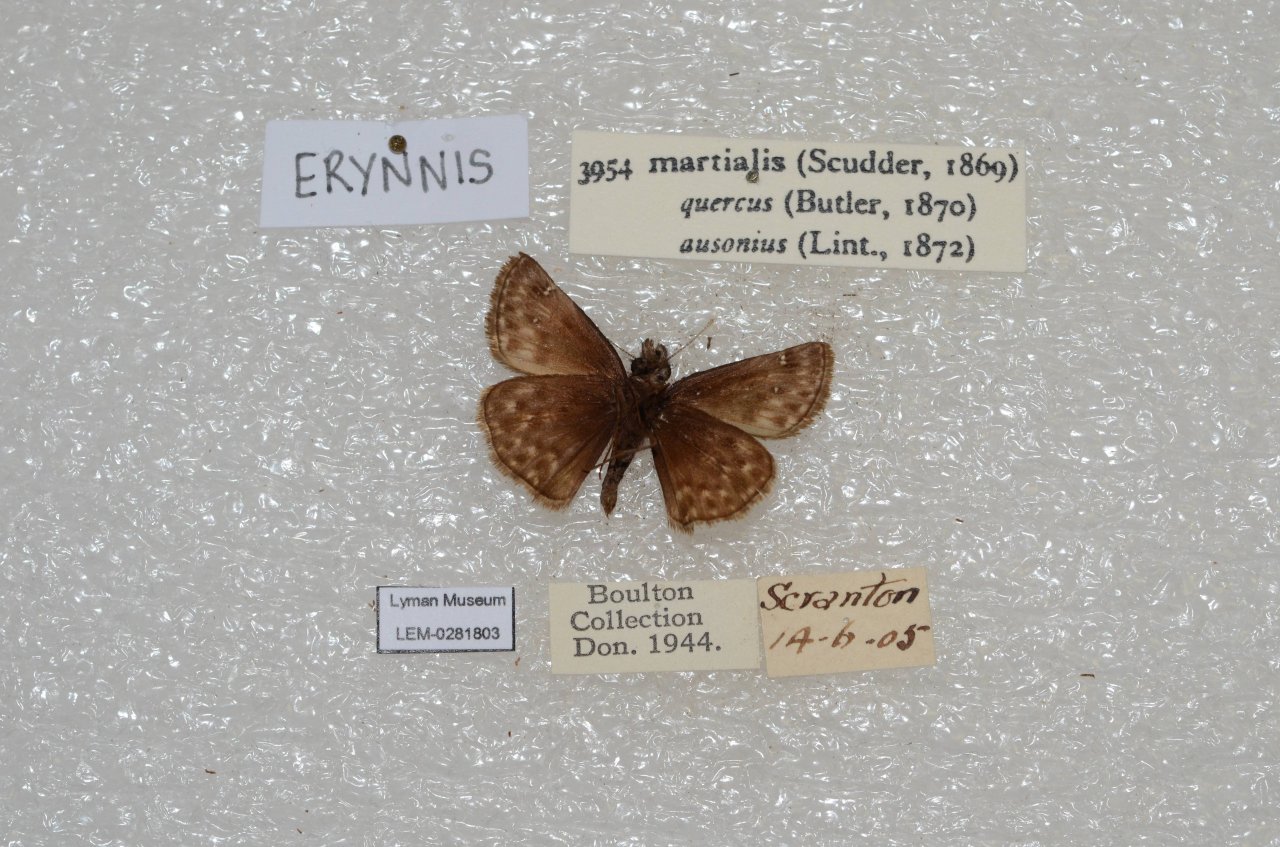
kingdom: Animalia
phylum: Arthropoda
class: Insecta
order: Lepidoptera
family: Hesperiidae
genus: Erynnis
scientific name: Erynnis martialis
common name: Mottled Duskywing
